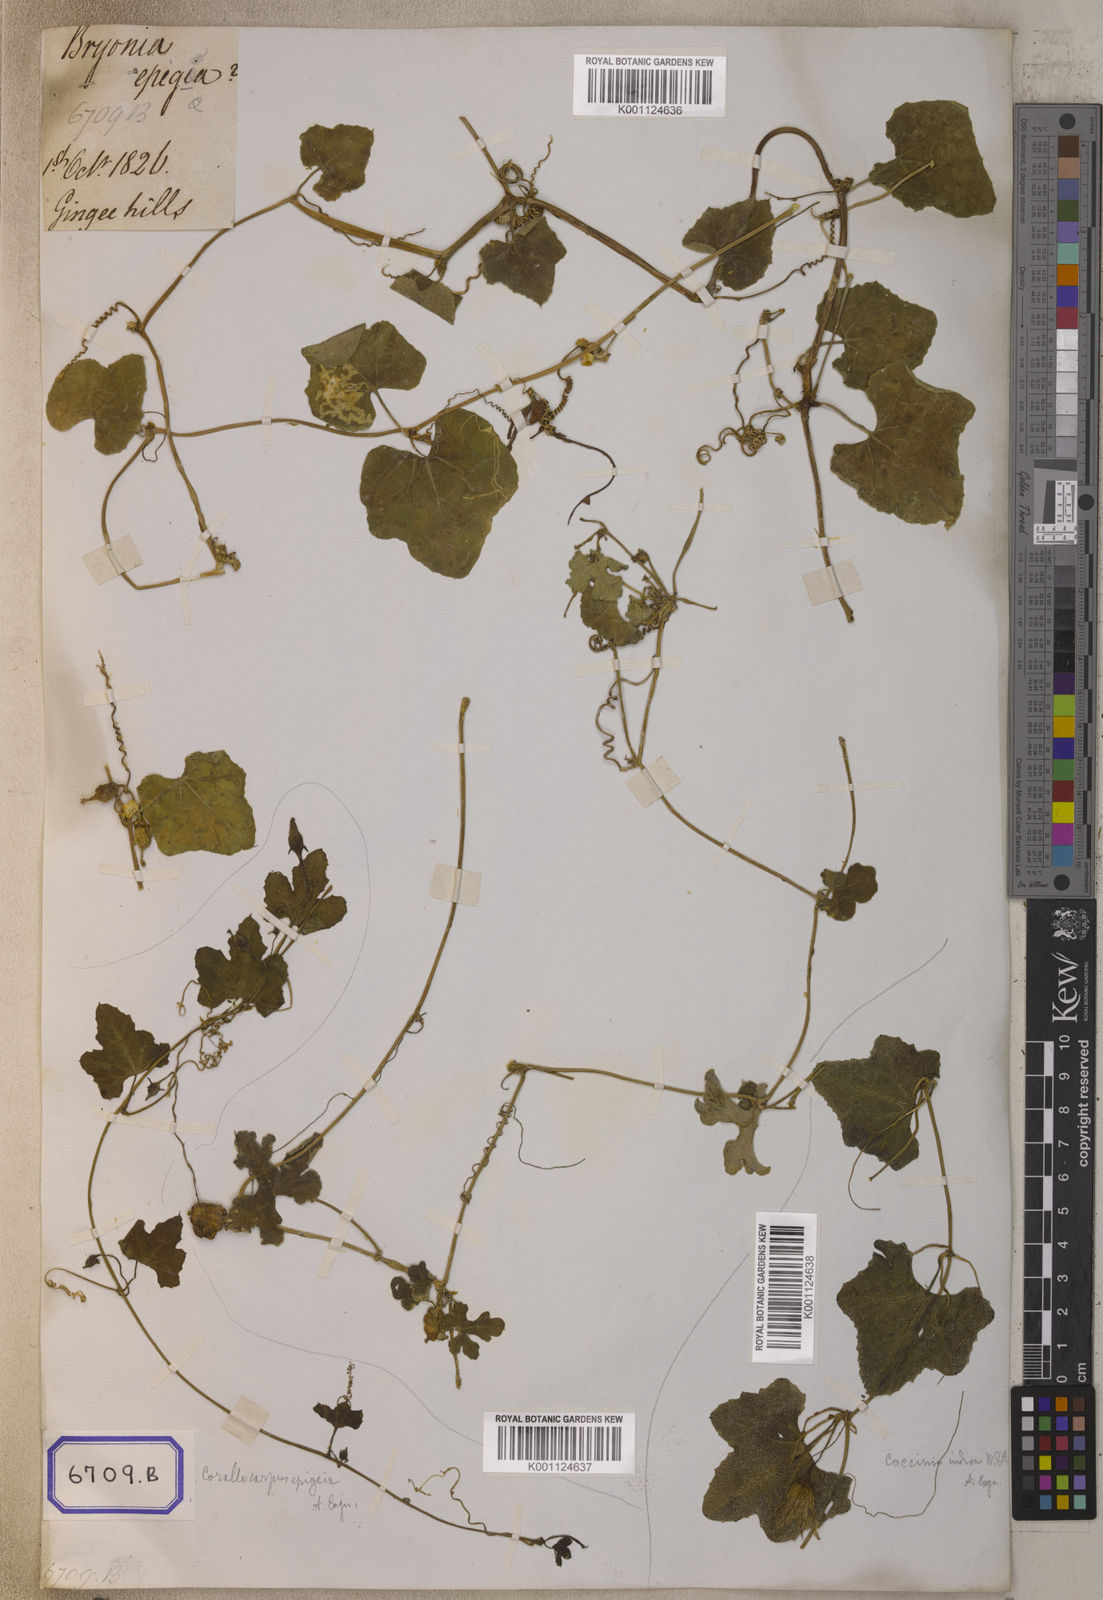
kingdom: Plantae
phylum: Tracheophyta
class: Magnoliopsida
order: Cucurbitales
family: Cucurbitaceae
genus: Corallocarpus
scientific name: Corallocarpus epigaeus
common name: Indian bryonia
